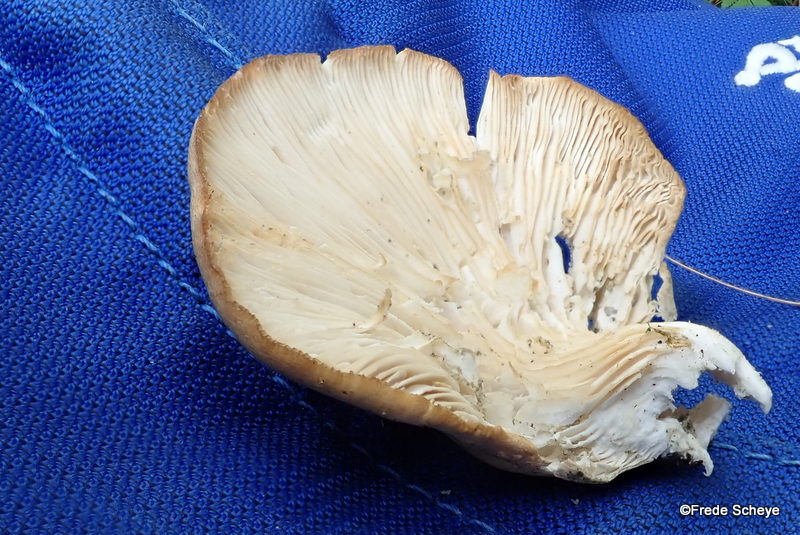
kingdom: Fungi
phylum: Basidiomycota
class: Agaricomycetes
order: Agaricales
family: Pleurotaceae
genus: Pleurotus
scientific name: Pleurotus pulmonarius
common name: sommer-østershat
